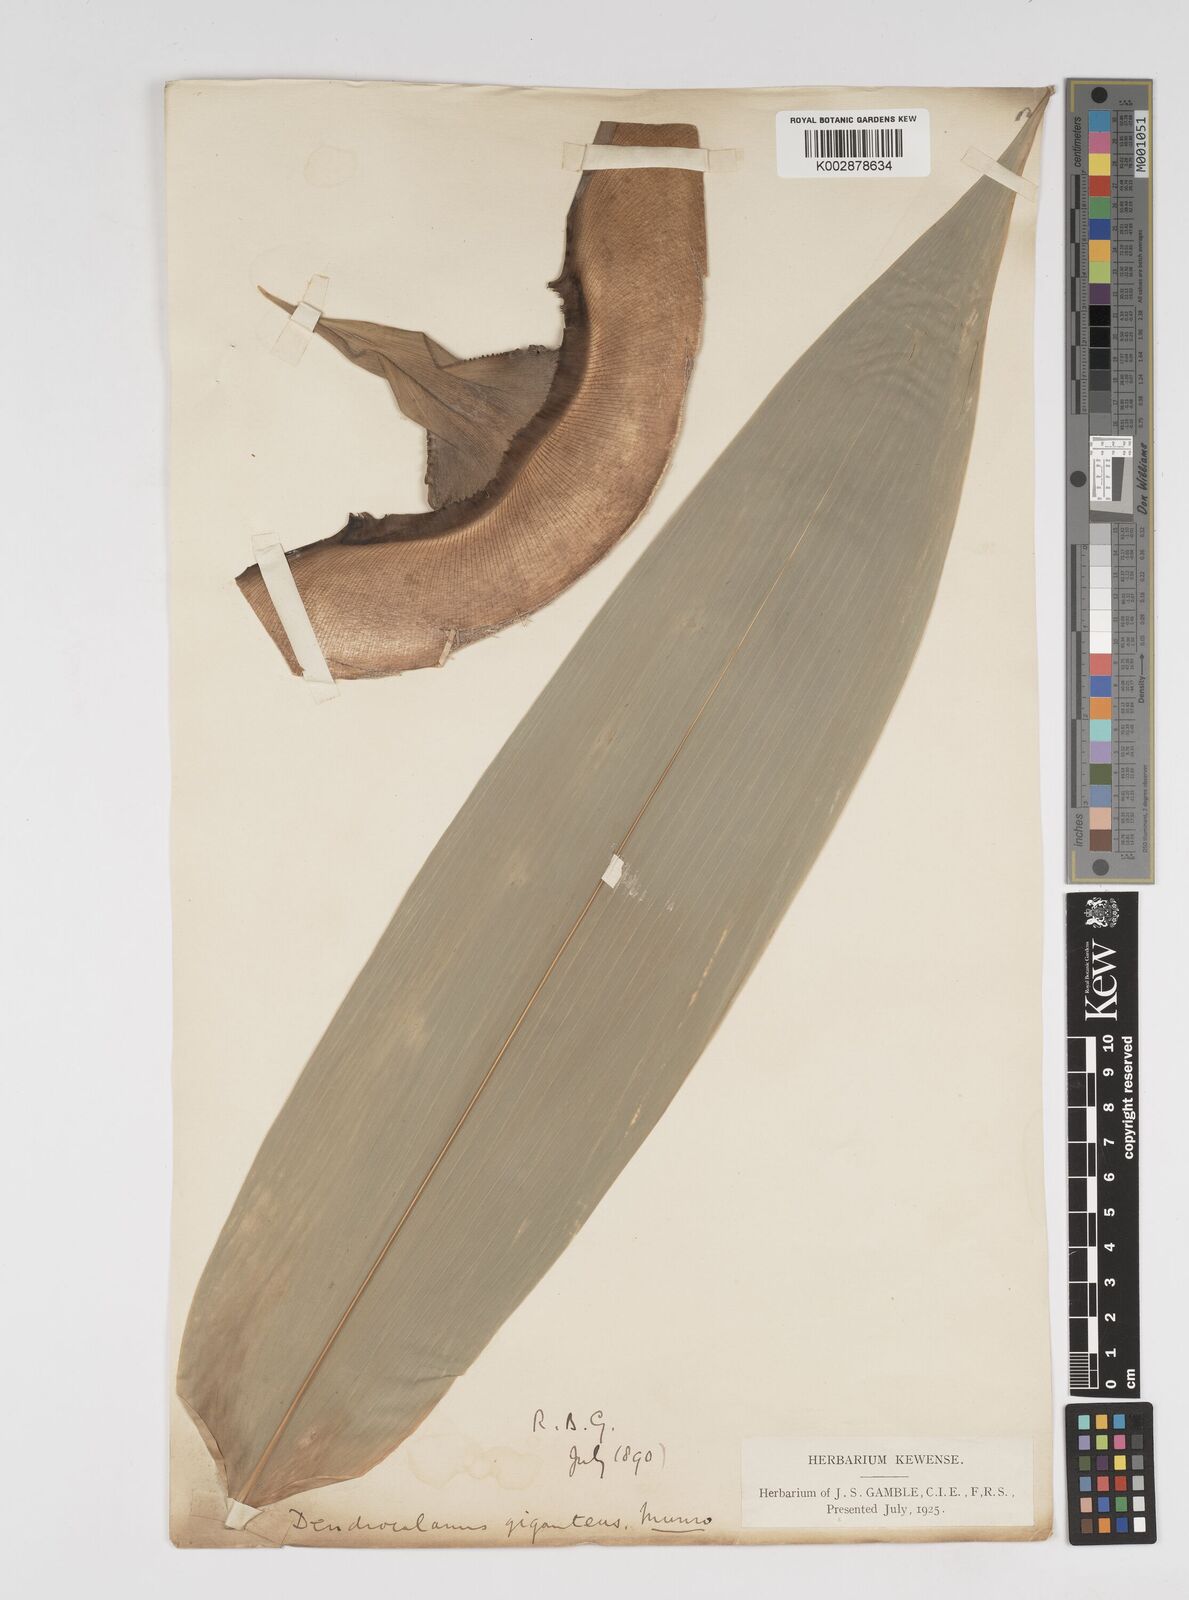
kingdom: Plantae
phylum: Tracheophyta
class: Liliopsida
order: Poales
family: Poaceae
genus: Dendrocalamus
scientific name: Dendrocalamus giganteus
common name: Giant bamboo
